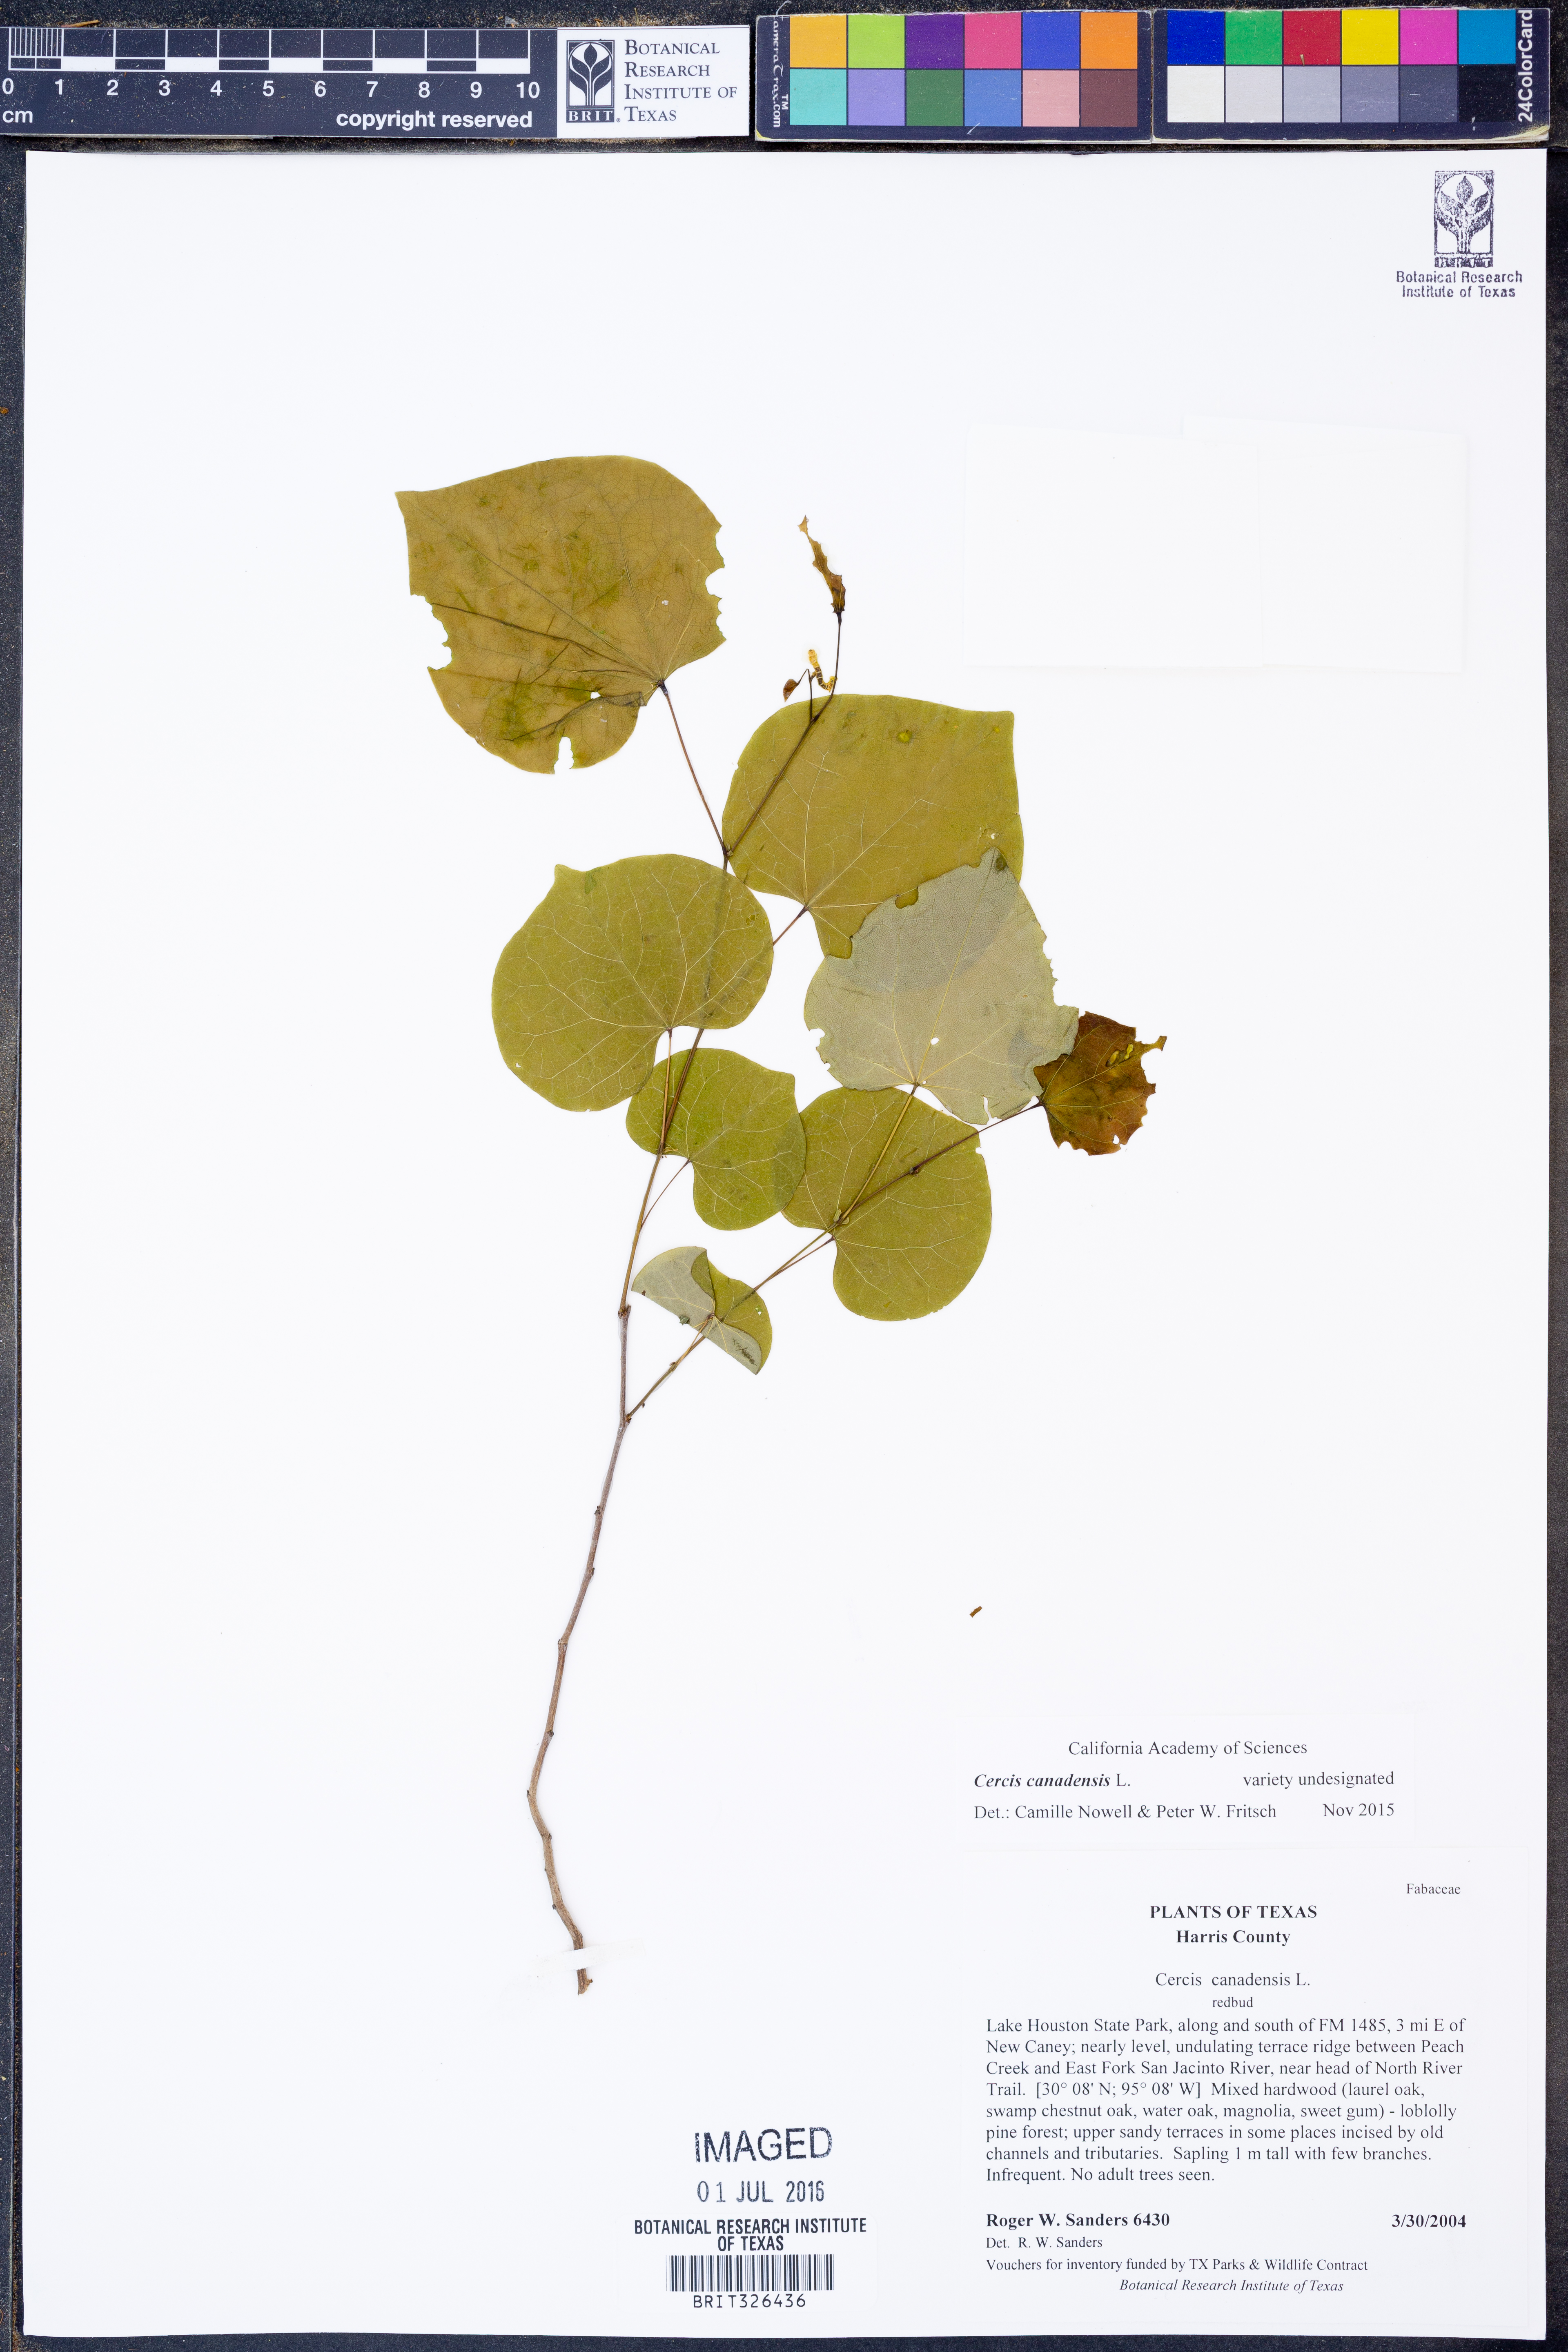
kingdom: Plantae
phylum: Tracheophyta
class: Magnoliopsida
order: Fabales
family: Fabaceae
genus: Cercis
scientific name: Cercis canadensis
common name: Eastern redbud
